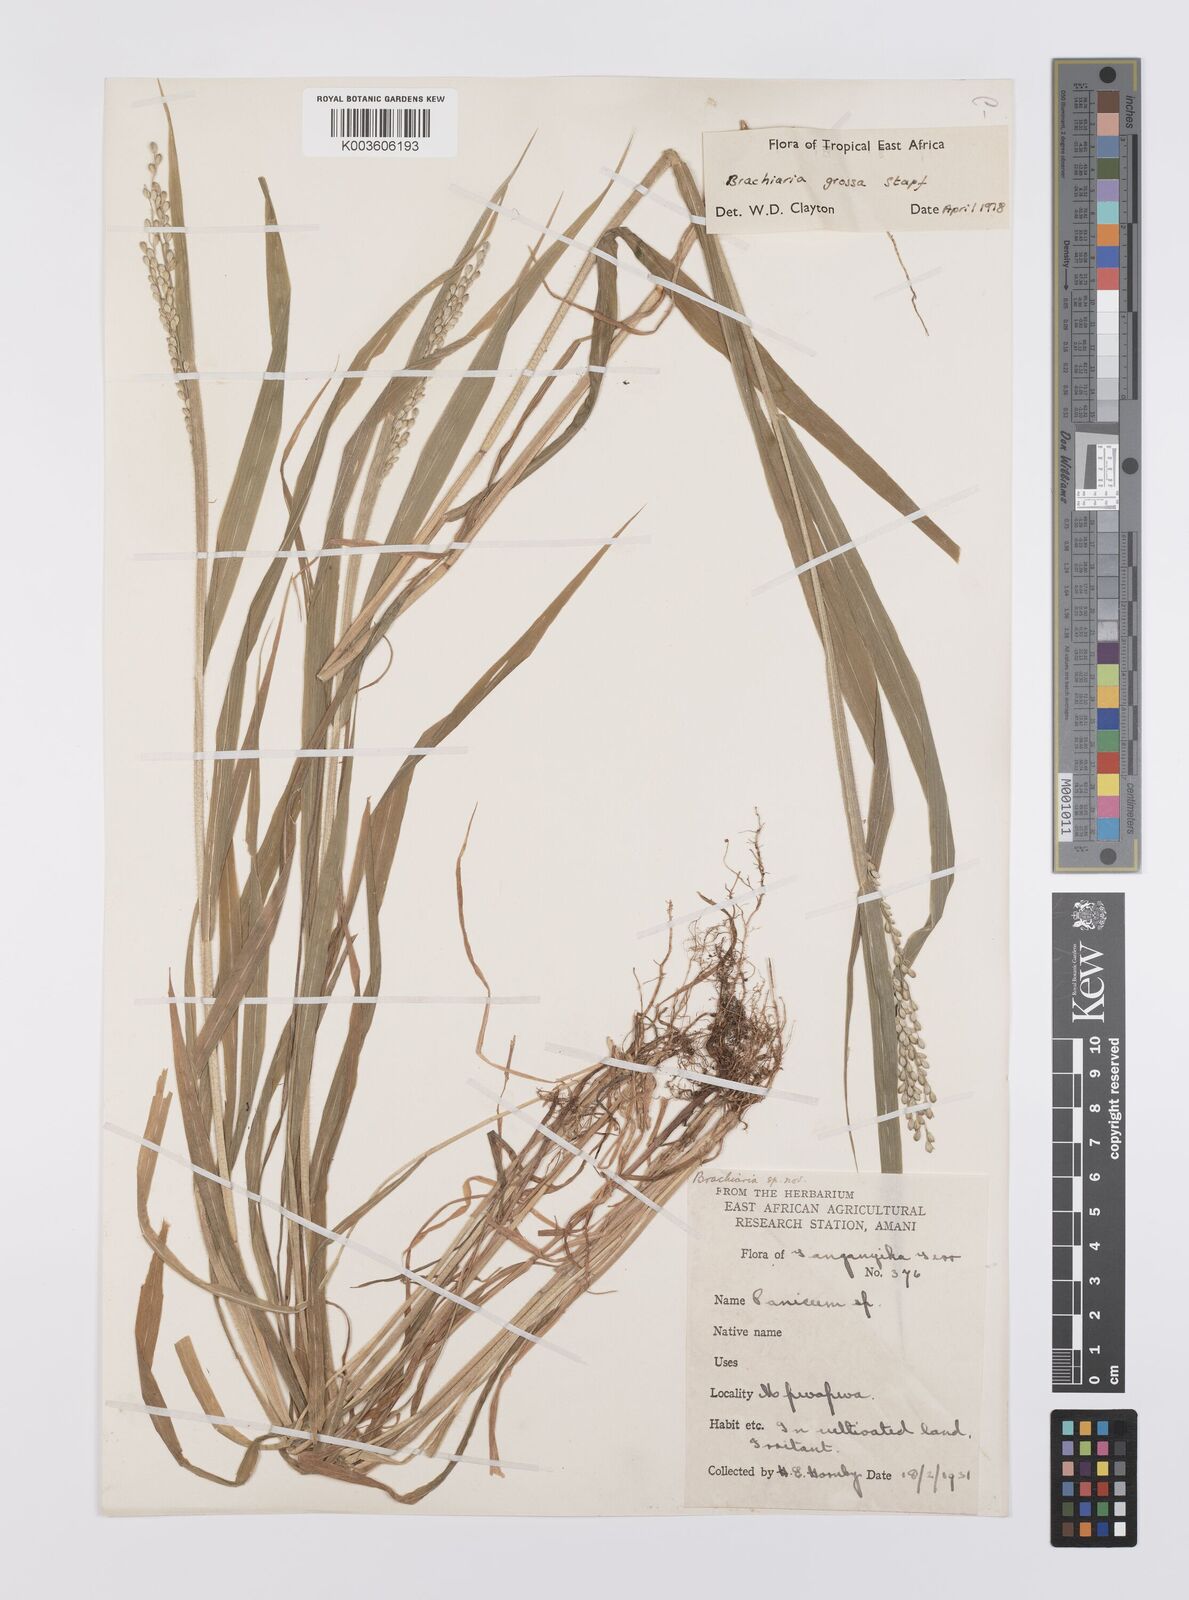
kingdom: Plantae
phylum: Tracheophyta
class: Liliopsida
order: Poales
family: Poaceae
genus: Urochloa
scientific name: Urochloa Brachiaria grossa
